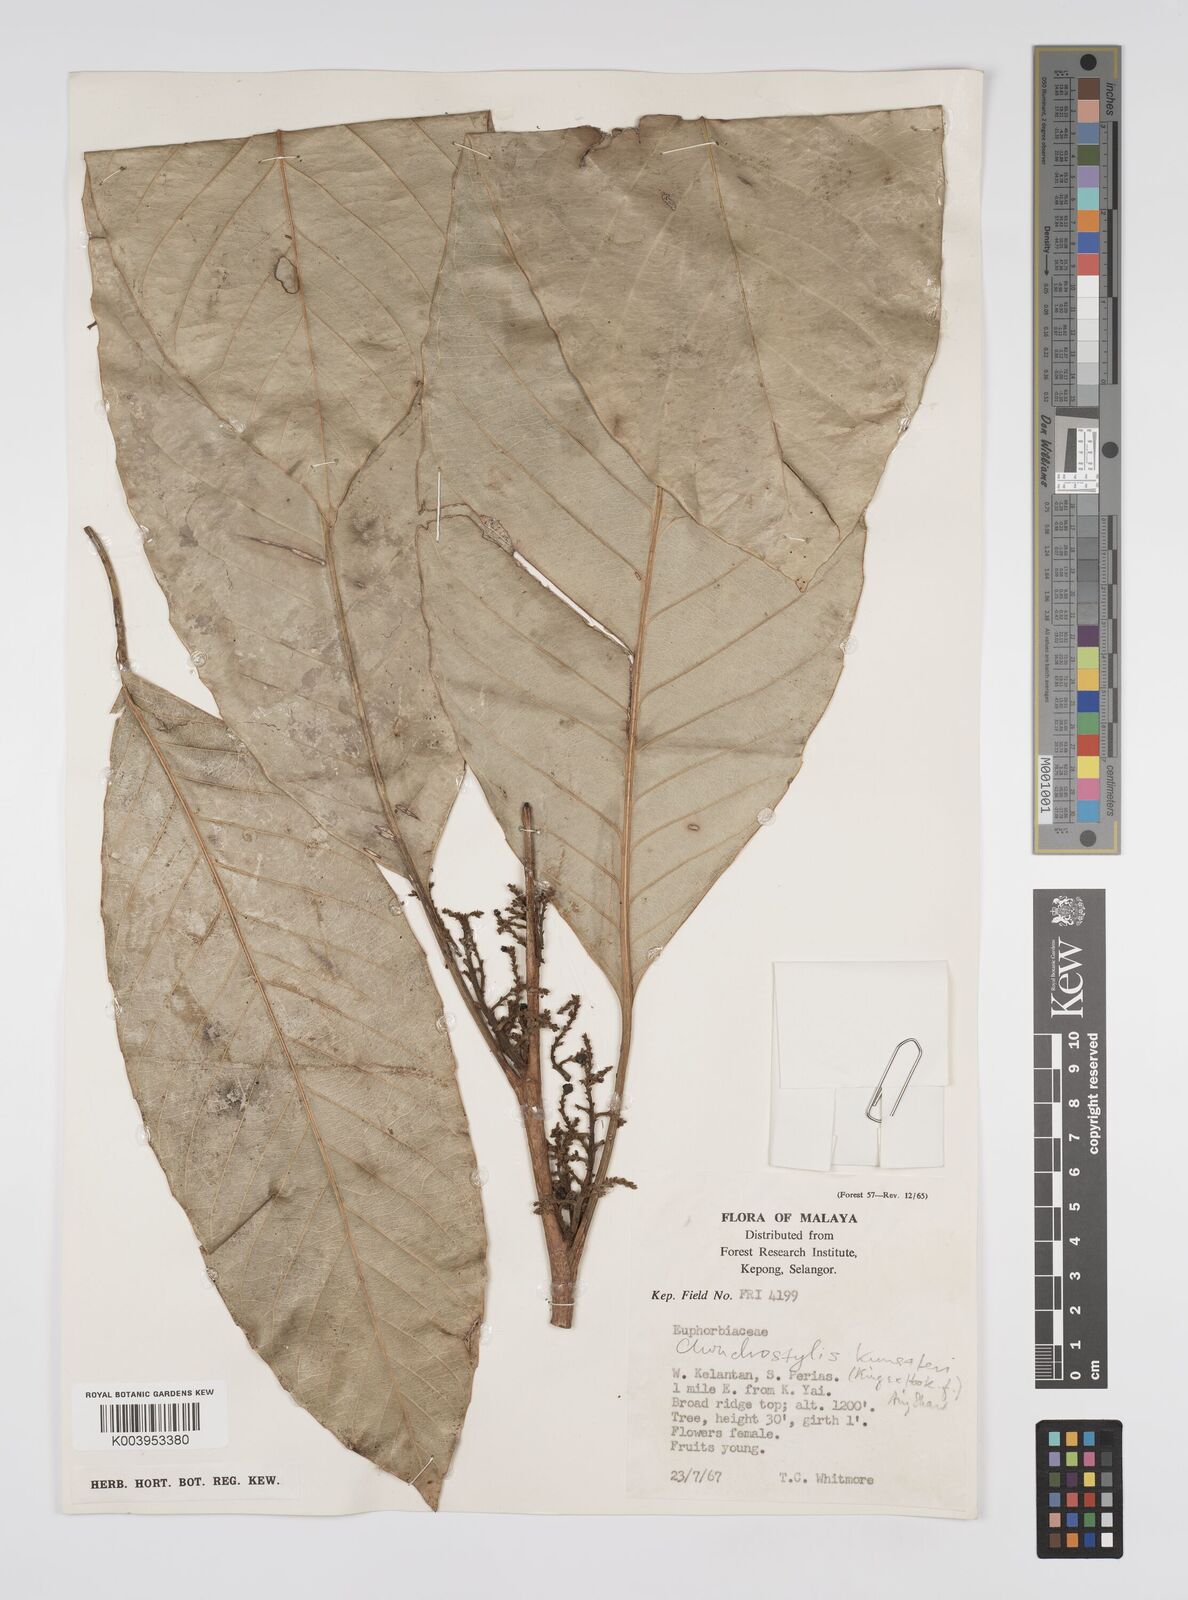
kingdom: Plantae
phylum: Tracheophyta
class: Magnoliopsida
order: Malpighiales
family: Euphorbiaceae
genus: Chondrostylis
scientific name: Chondrostylis kunstleri
